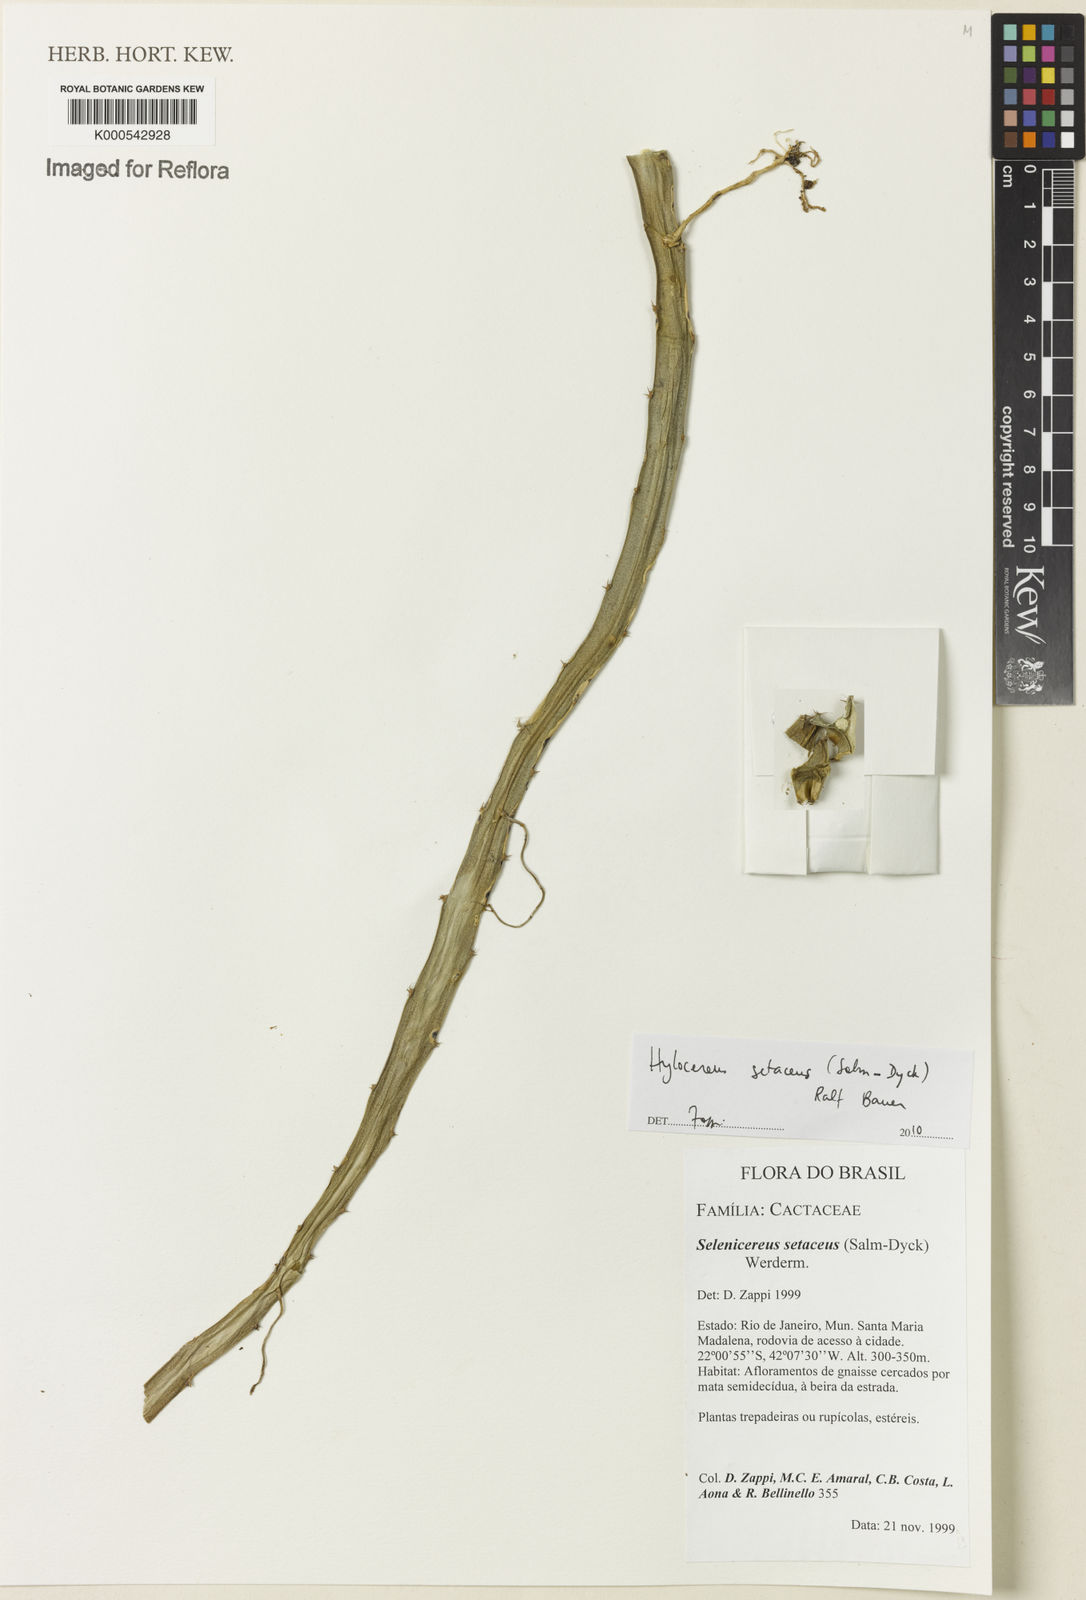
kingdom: Plantae
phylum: Tracheophyta
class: Magnoliopsida
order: Caryophyllales
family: Cactaceae
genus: Selenicereus
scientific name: Selenicereus setaceus
